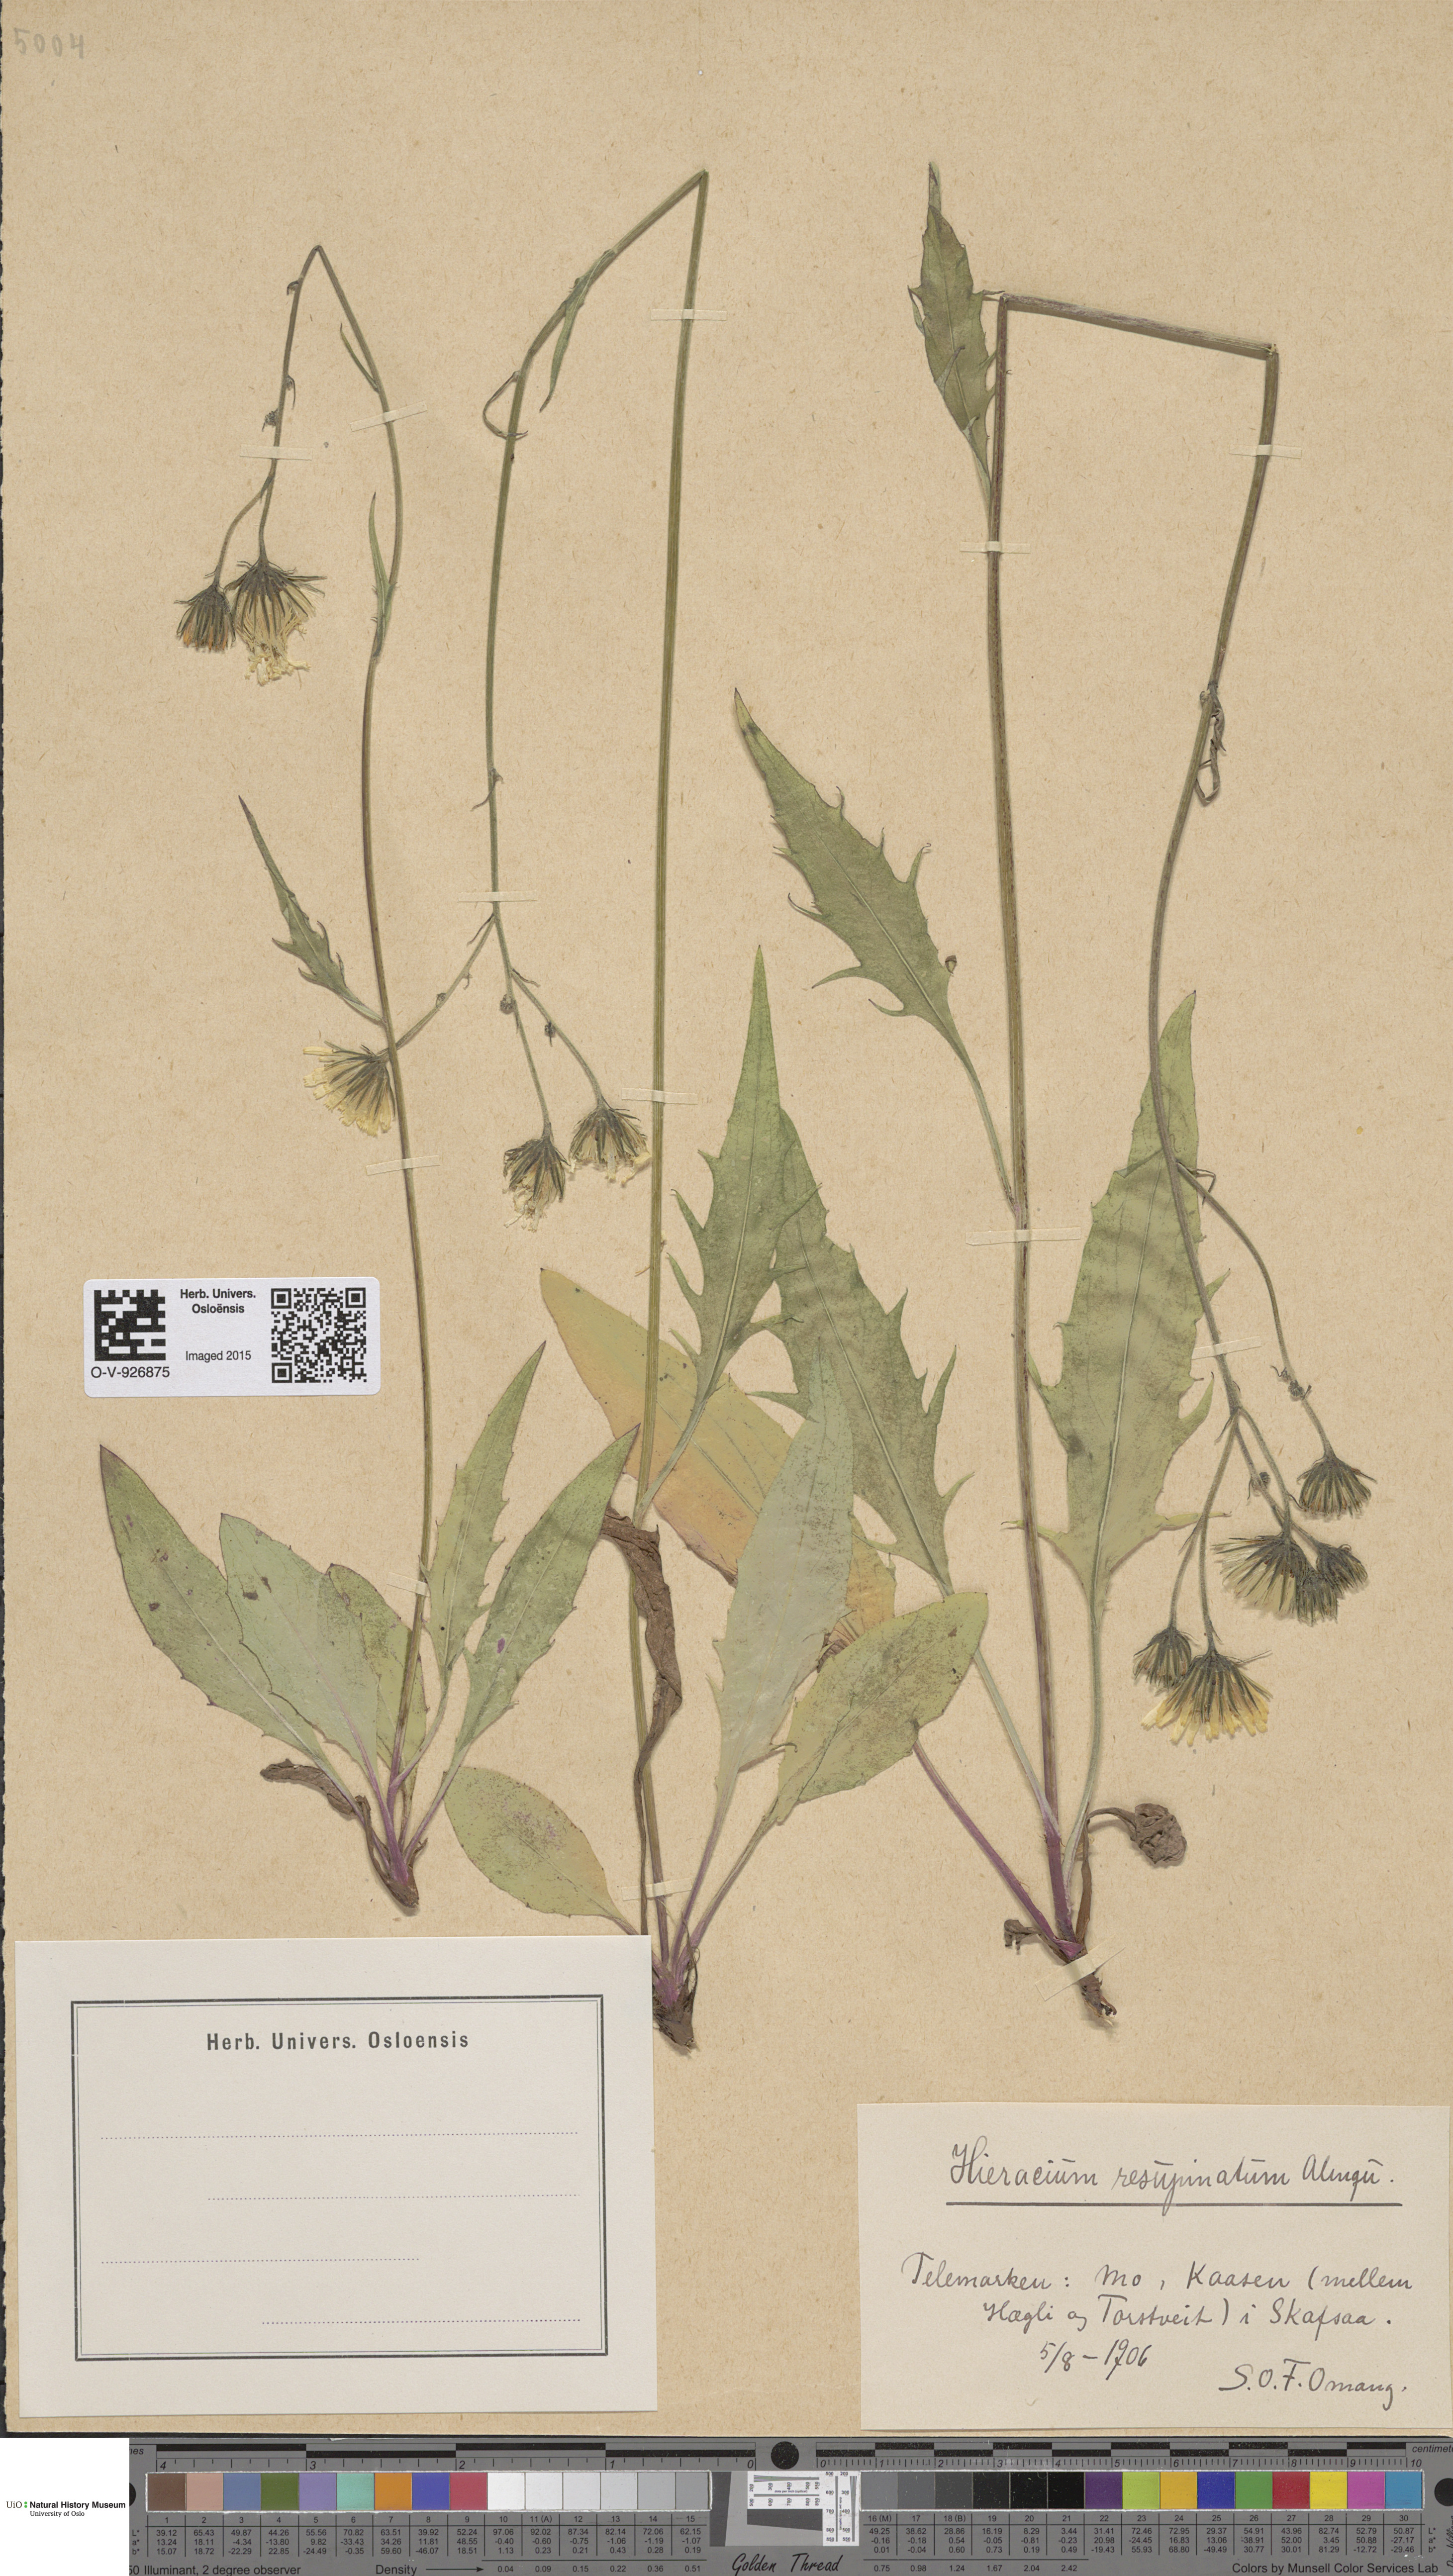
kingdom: Plantae
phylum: Tracheophyta
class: Magnoliopsida
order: Asterales
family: Asteraceae
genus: Hieracium
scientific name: Hieracium resupinatum
